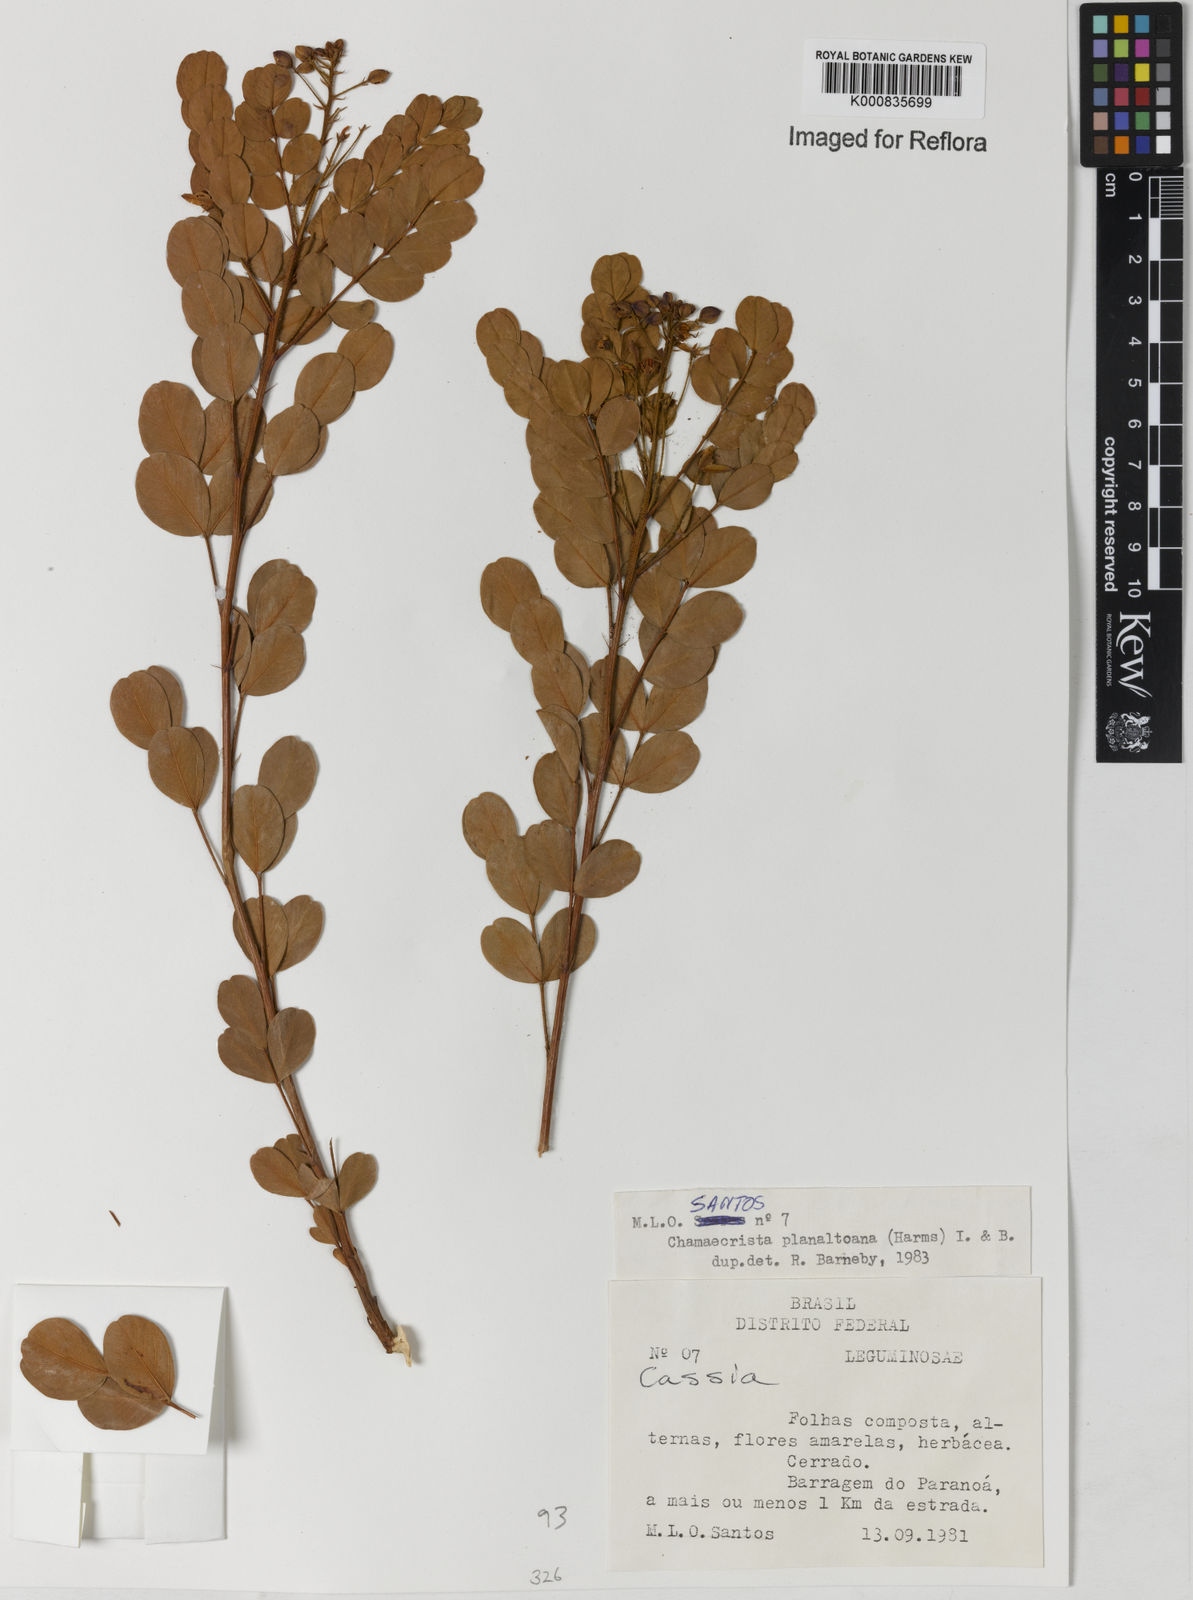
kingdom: Plantae
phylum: Tracheophyta
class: Magnoliopsida
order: Fabales
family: Fabaceae
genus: Chamaecrista
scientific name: Chamaecrista planaltoana
